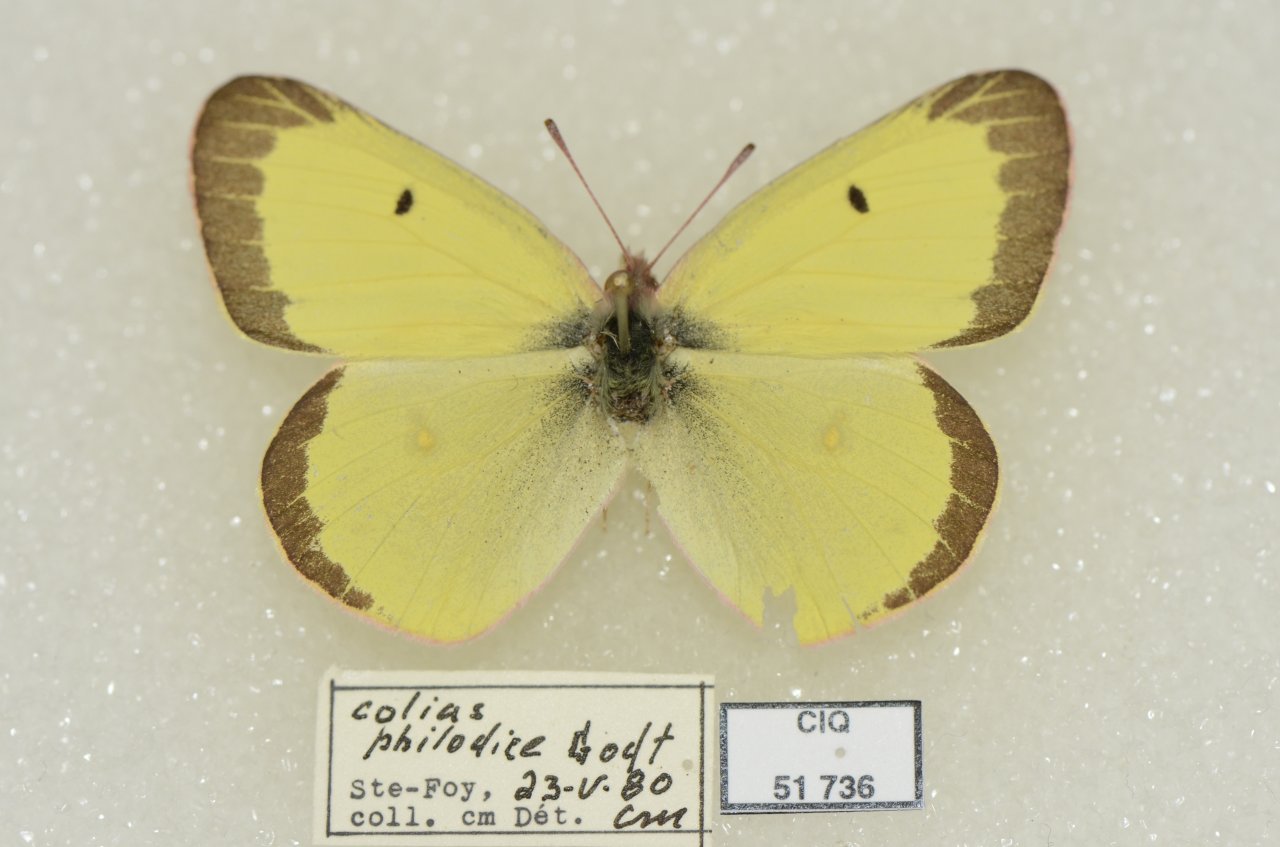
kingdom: Animalia
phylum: Arthropoda
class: Insecta
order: Lepidoptera
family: Pieridae
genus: Colias
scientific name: Colias philodice
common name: Clouded Sulphur
